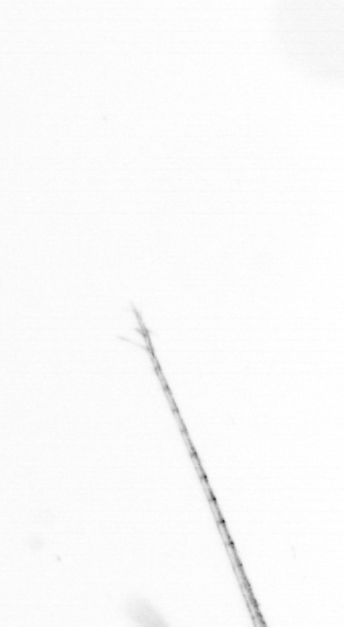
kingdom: Chromista
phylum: Ochrophyta
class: Bacillariophyceae
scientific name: Bacillariophyceae
